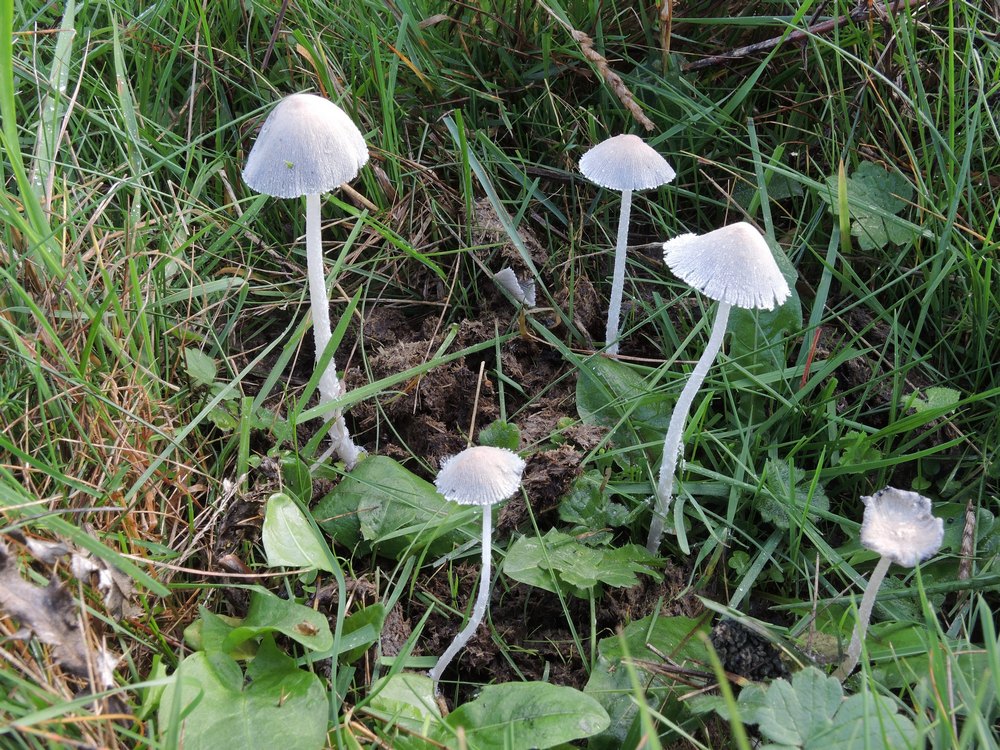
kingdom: Fungi
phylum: Basidiomycota
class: Agaricomycetes
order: Agaricales
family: Psathyrellaceae
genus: Coprinopsis
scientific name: Coprinopsis nivea
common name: snehvid blækhat
